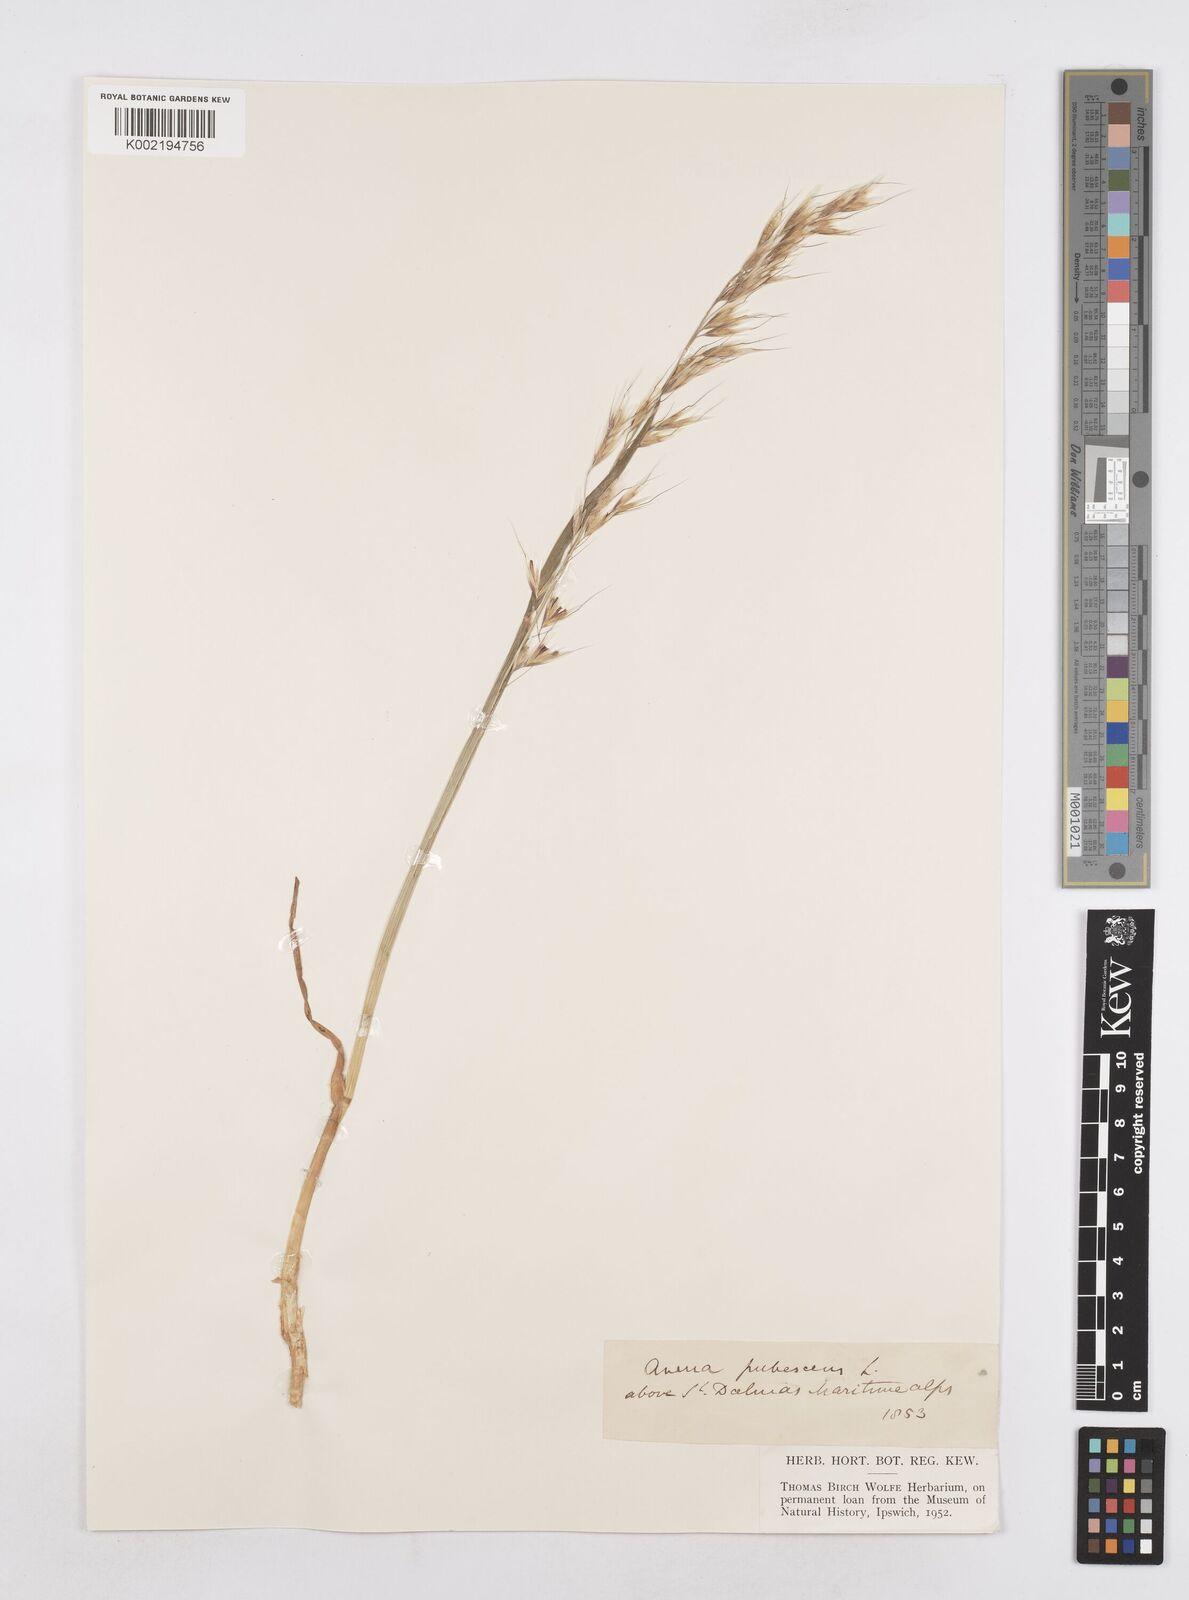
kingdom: Plantae
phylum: Tracheophyta
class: Liliopsida
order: Poales
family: Poaceae
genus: Avenula
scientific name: Avenula pubescens
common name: Downy alpine oatgrass
